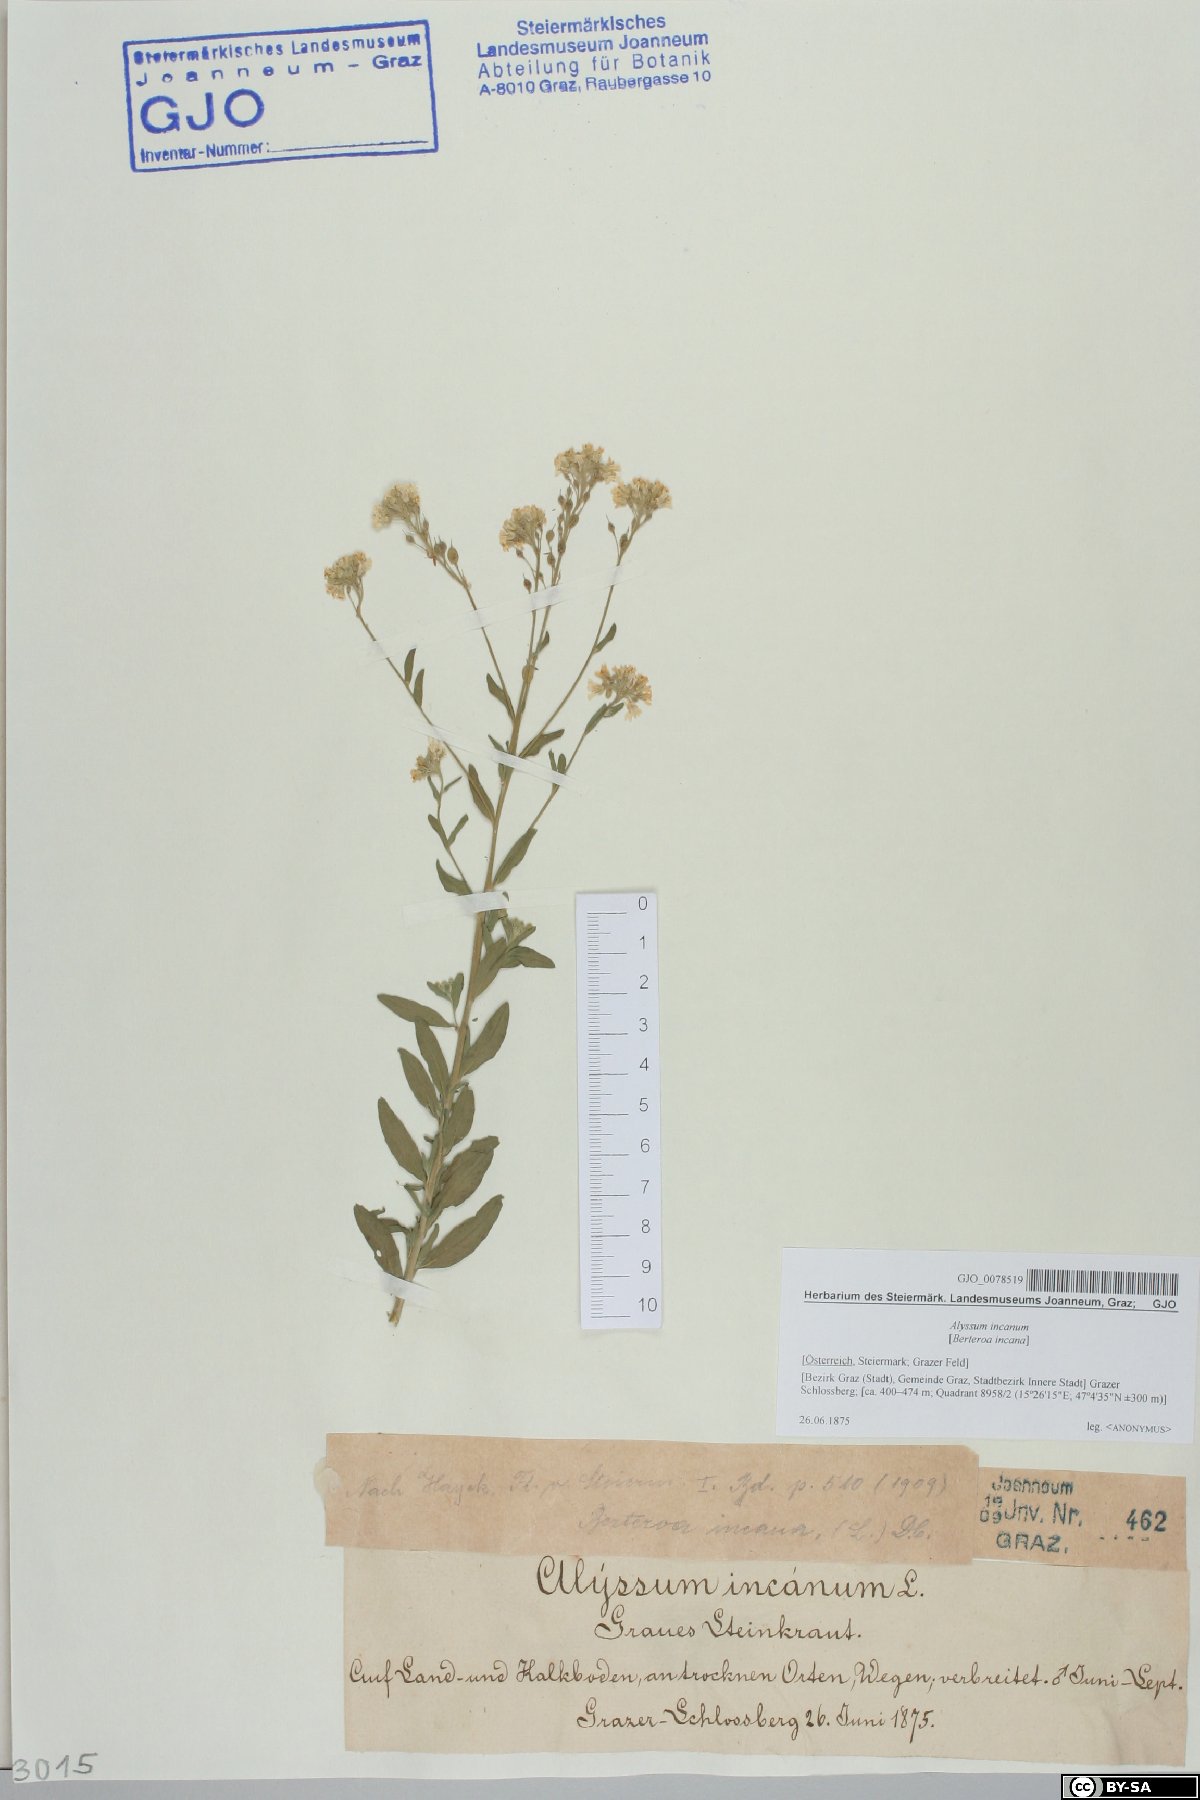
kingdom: Plantae
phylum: Tracheophyta
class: Magnoliopsida
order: Brassicales
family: Brassicaceae
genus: Berteroa
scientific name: Berteroa incana
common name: Hoary alison
